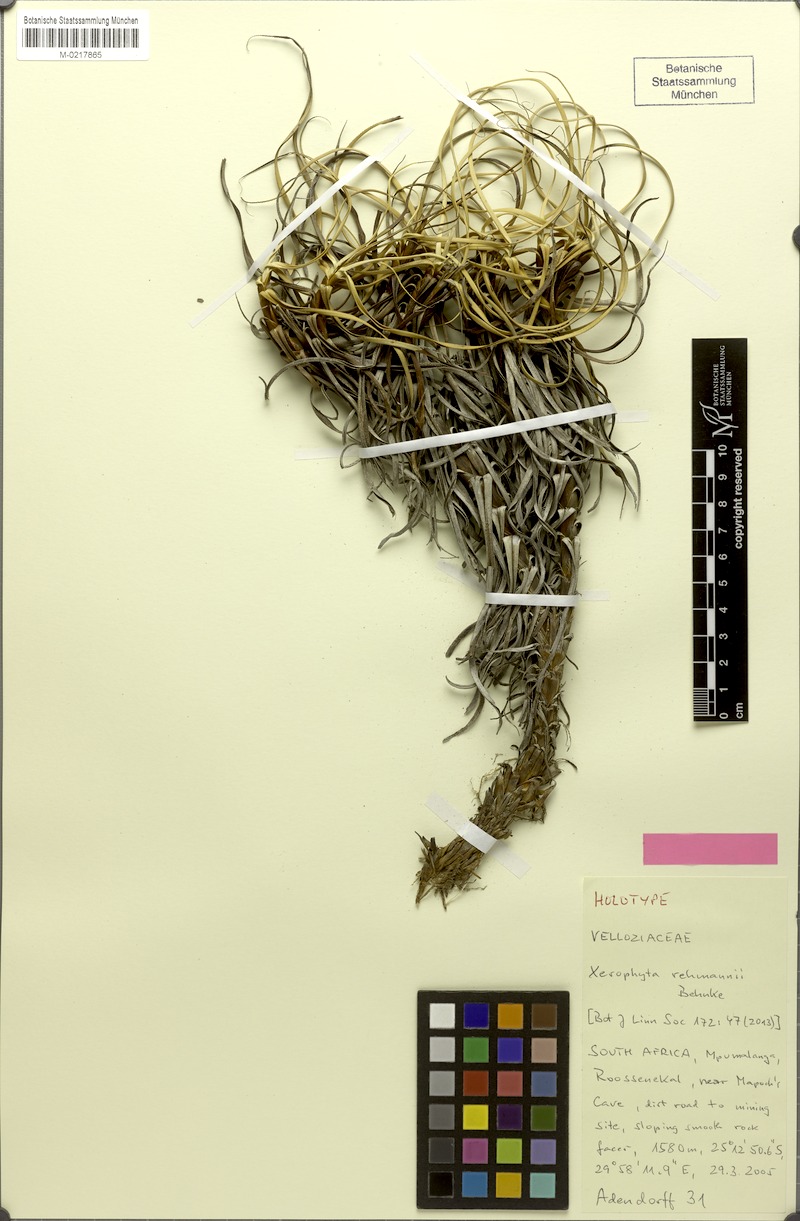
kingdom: Plantae
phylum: Tracheophyta
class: Liliopsida
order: Pandanales
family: Velloziaceae
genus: Xerophyta
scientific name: Xerophyta rehmannii
